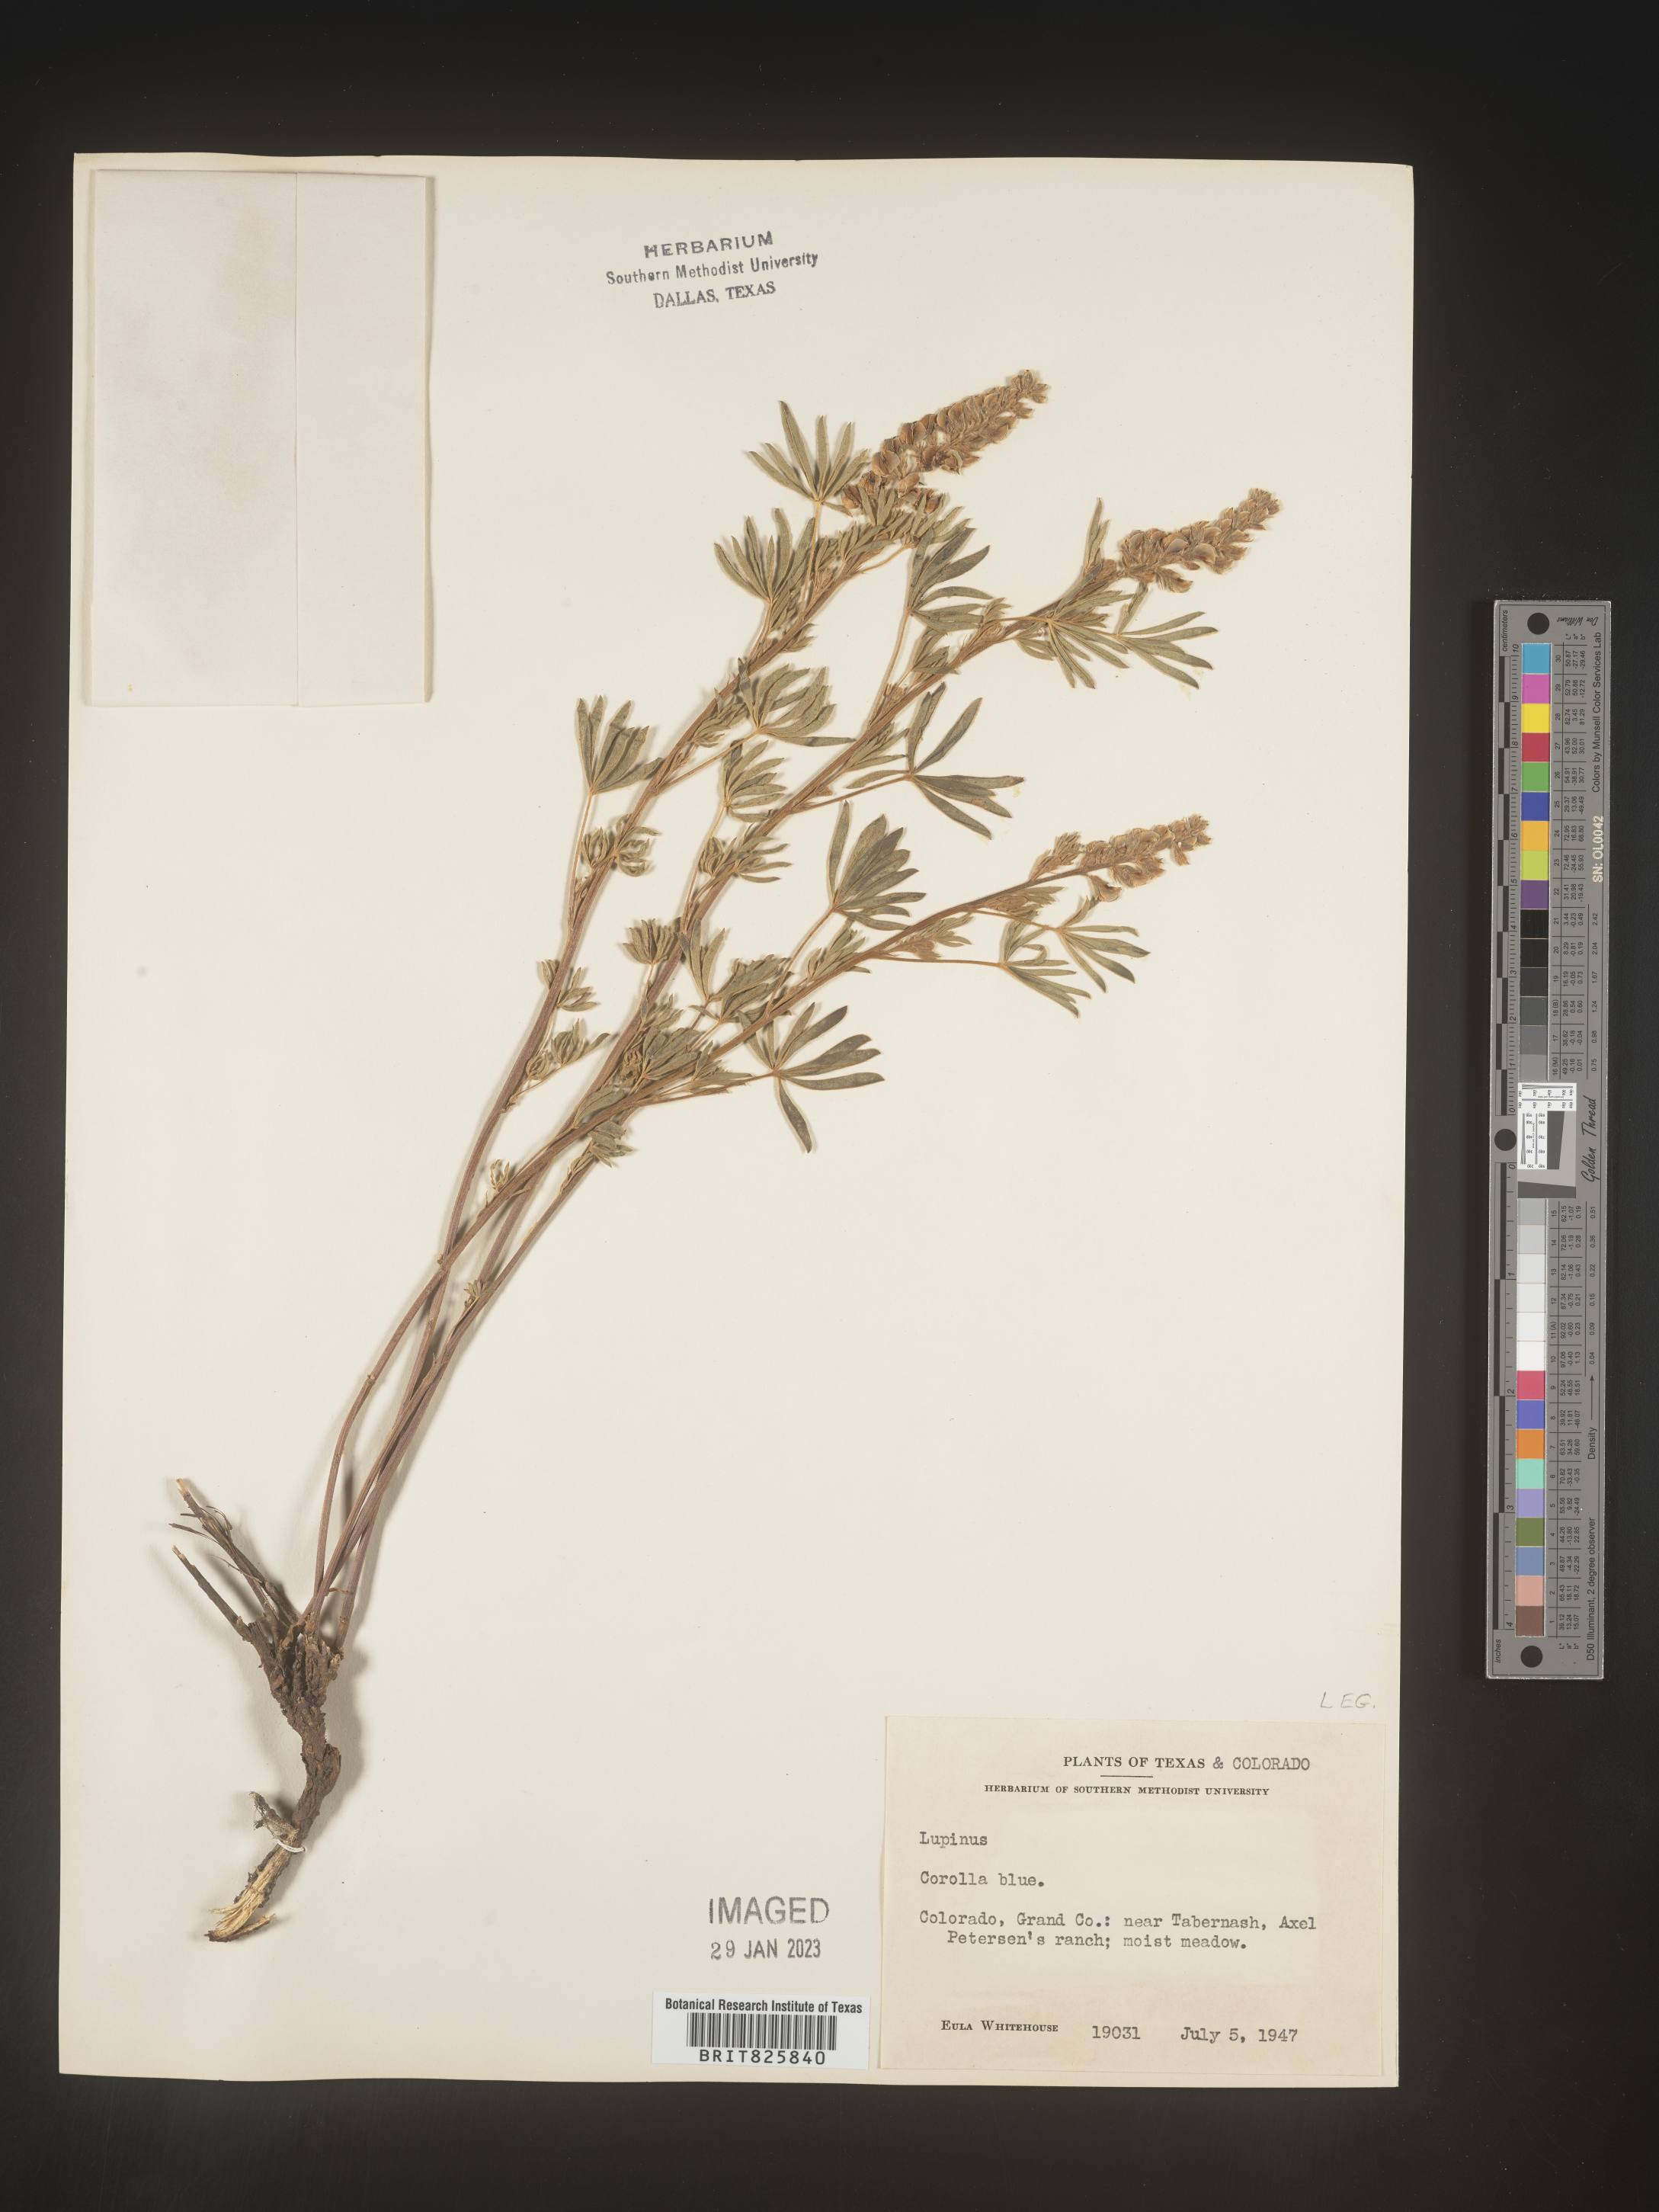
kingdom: Plantae
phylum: Tracheophyta
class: Magnoliopsida
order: Fabales
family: Fabaceae
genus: Lupinus
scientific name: Lupinus
